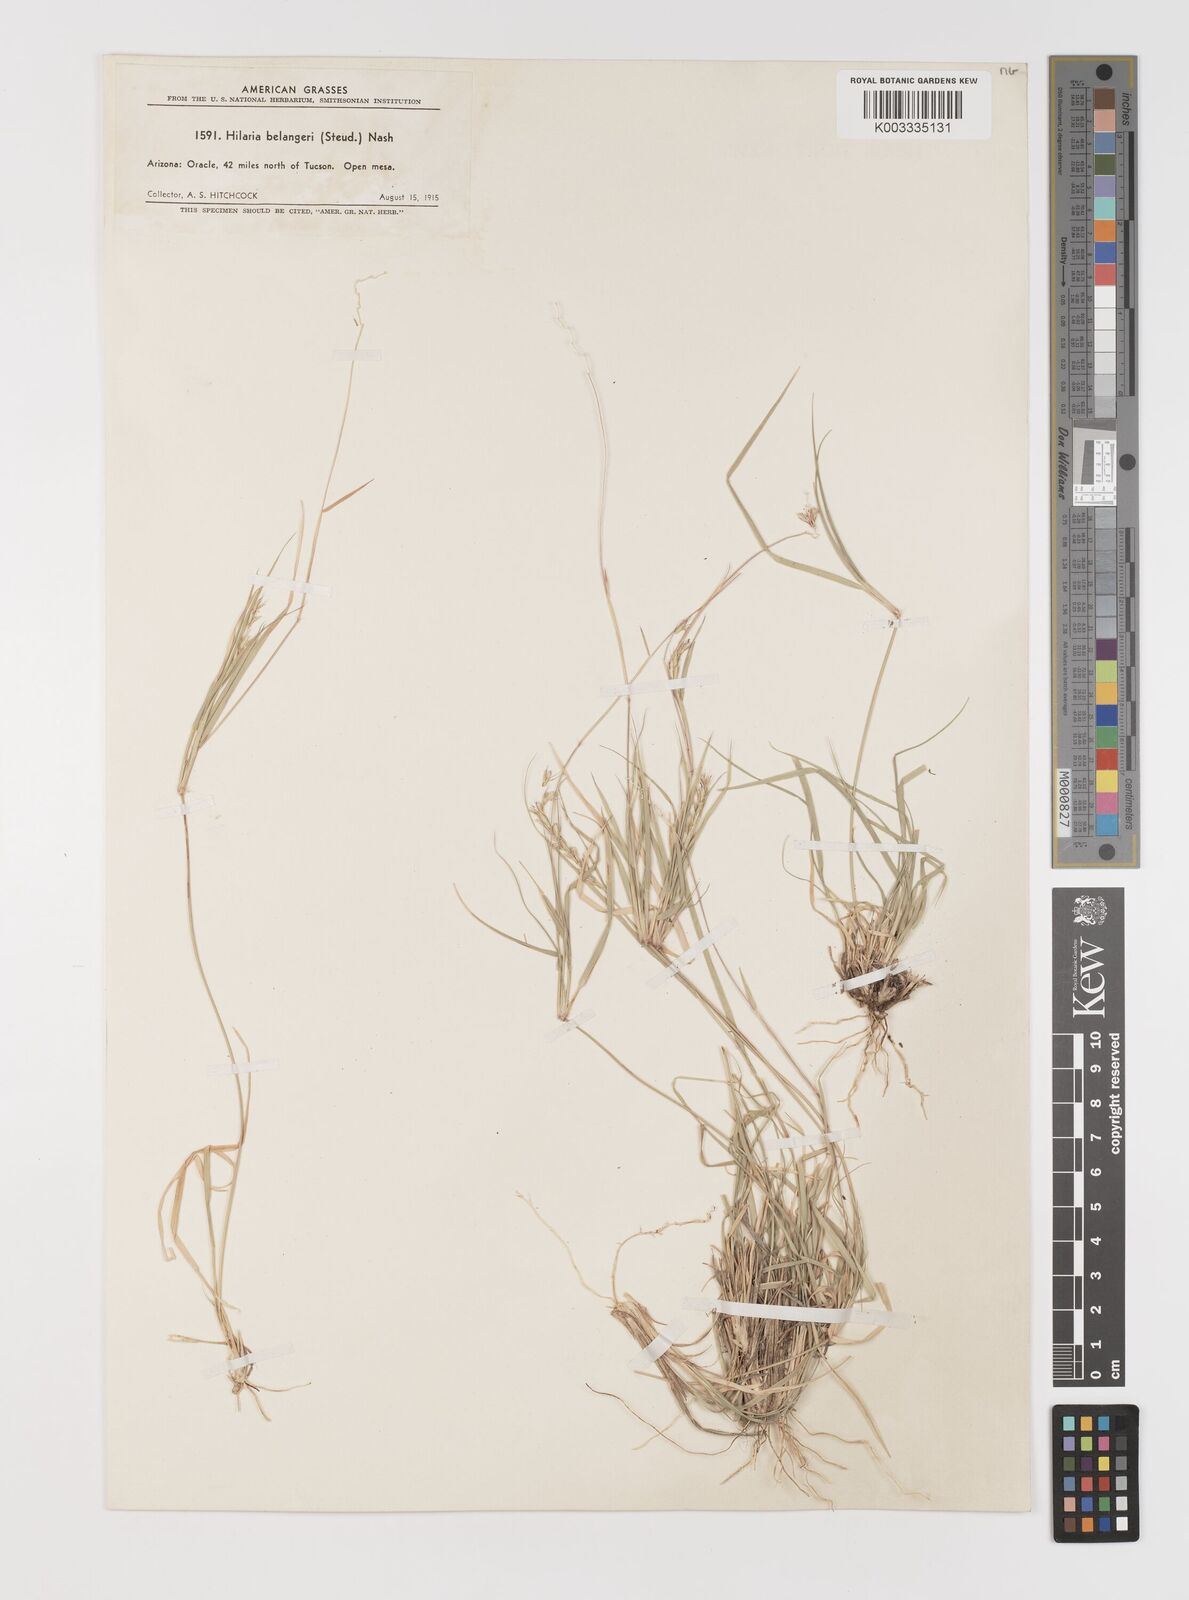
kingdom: Plantae
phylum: Tracheophyta
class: Liliopsida
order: Poales
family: Poaceae
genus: Hilaria
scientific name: Hilaria belangeri
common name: Curly-mesquite
